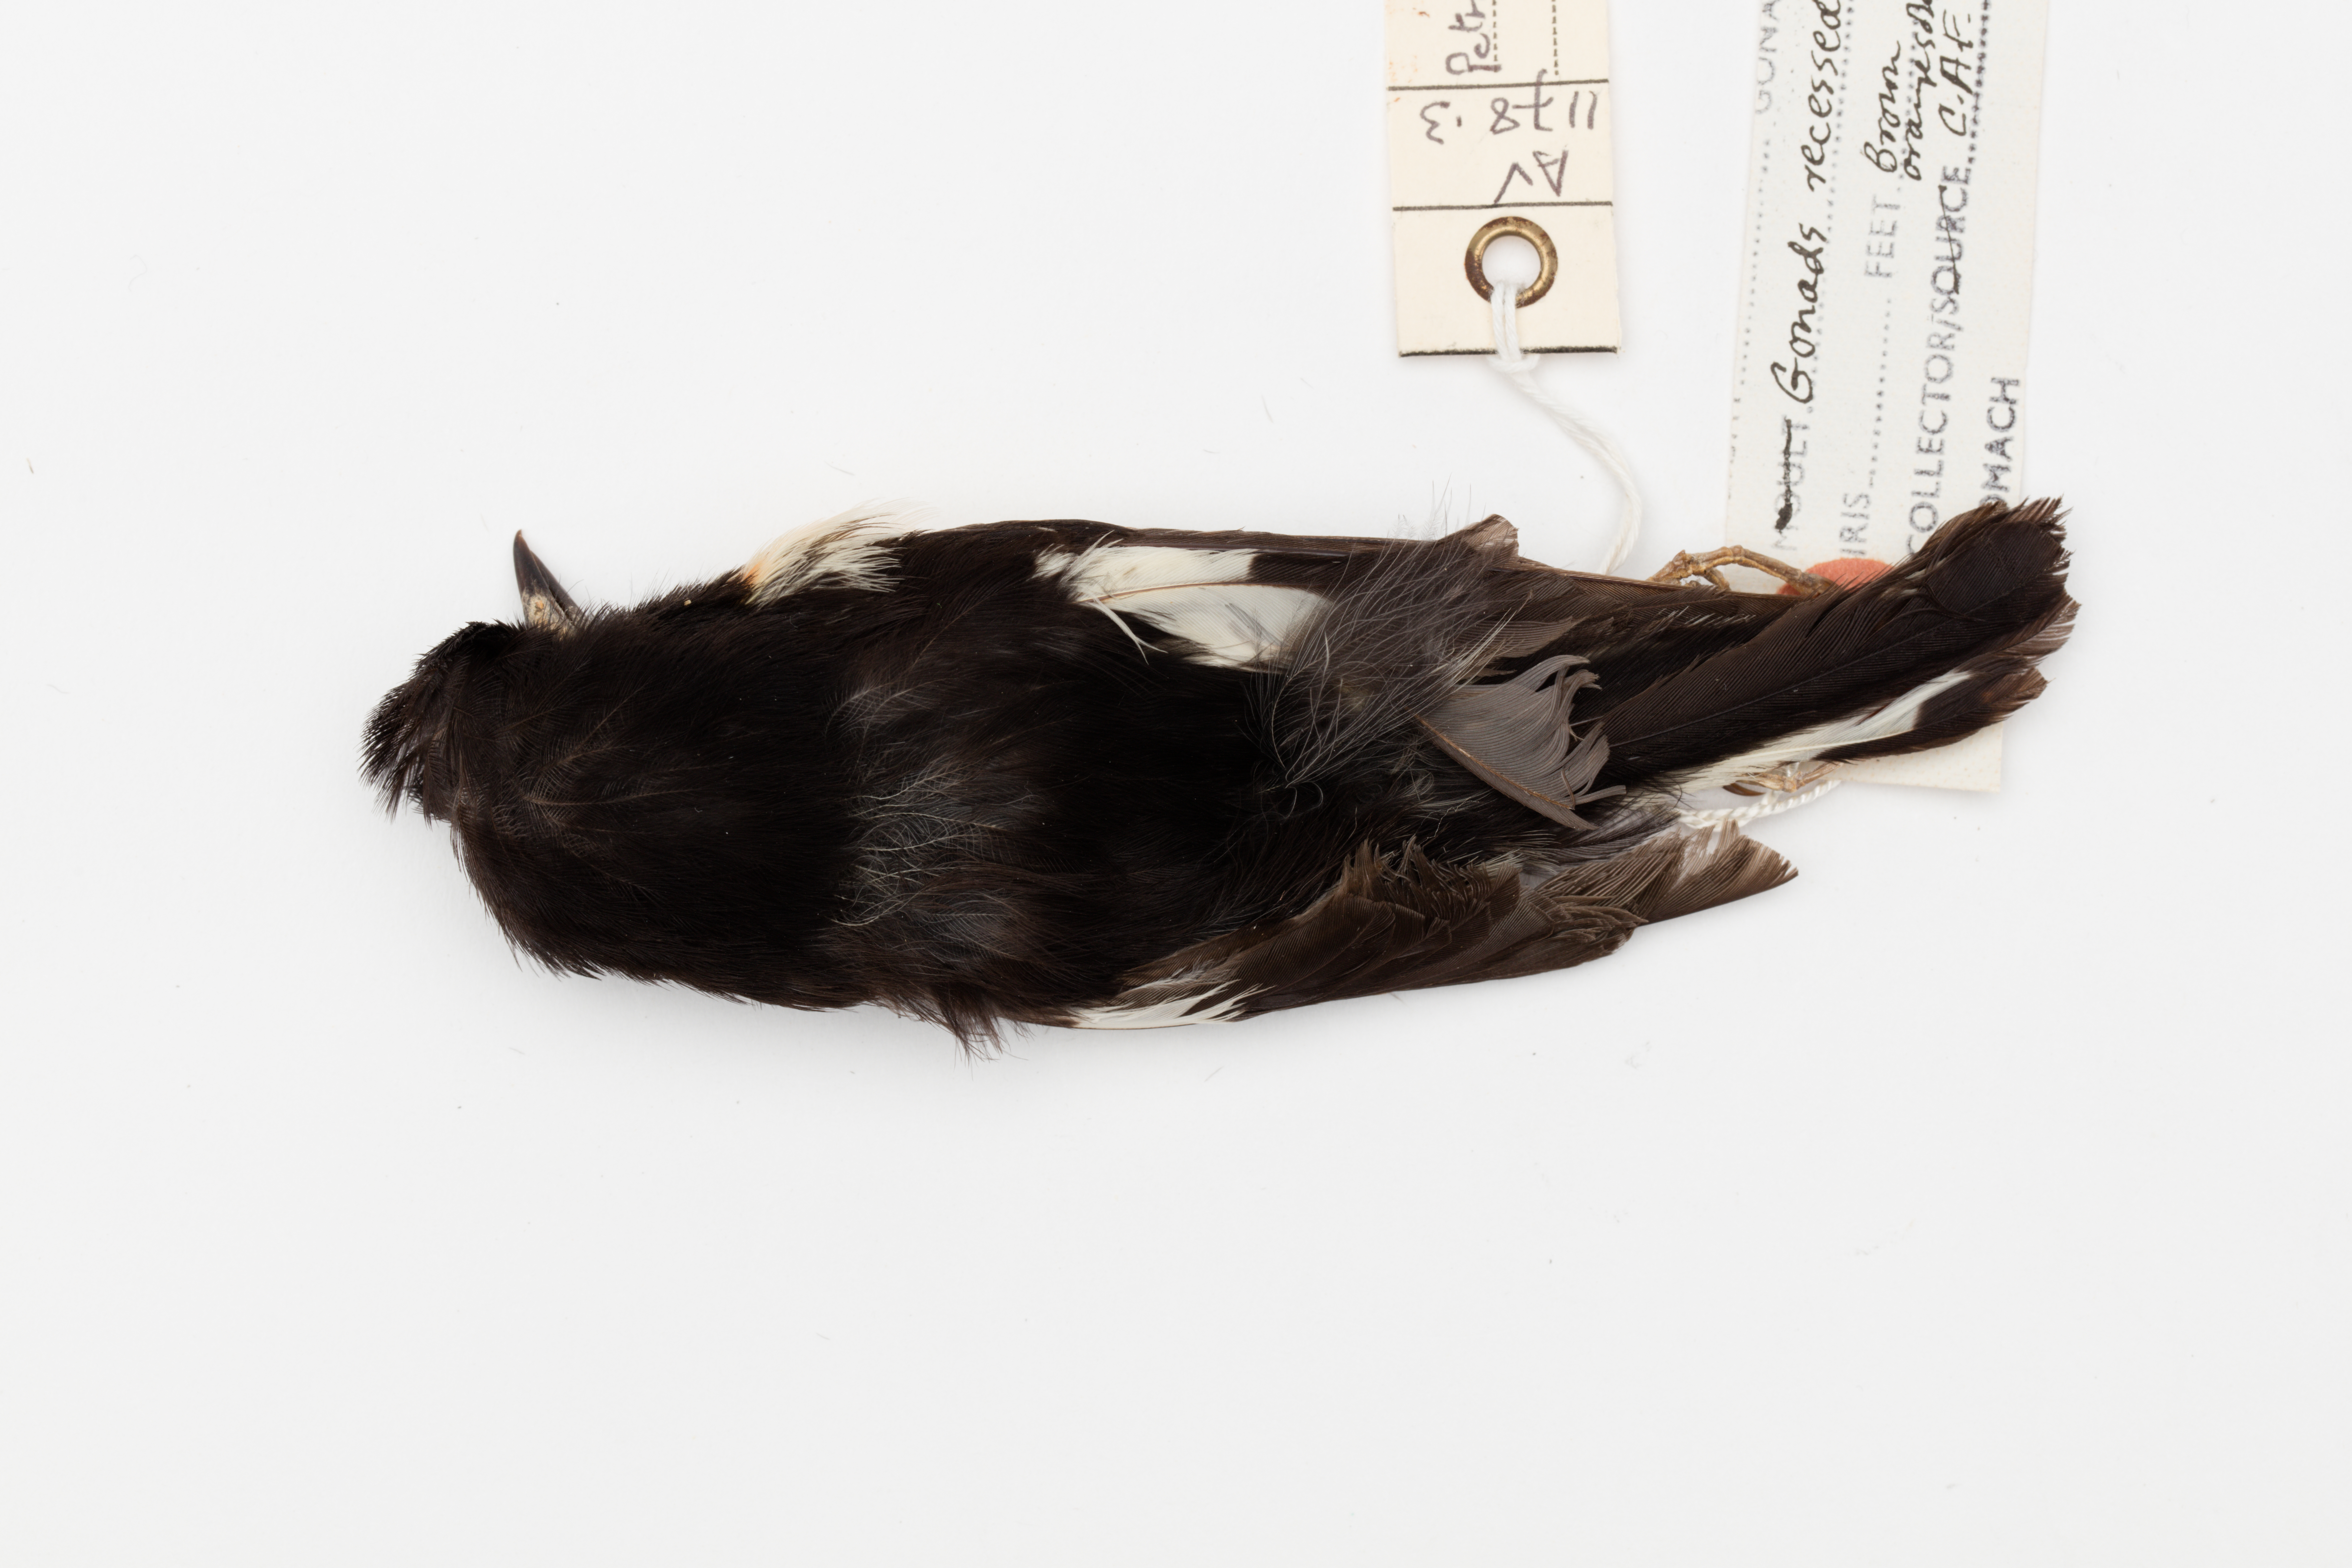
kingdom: Animalia
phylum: Chordata
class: Aves
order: Passeriformes
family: Petroicidae
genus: Petroica
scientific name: Petroica macrocephala
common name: Tomtit
